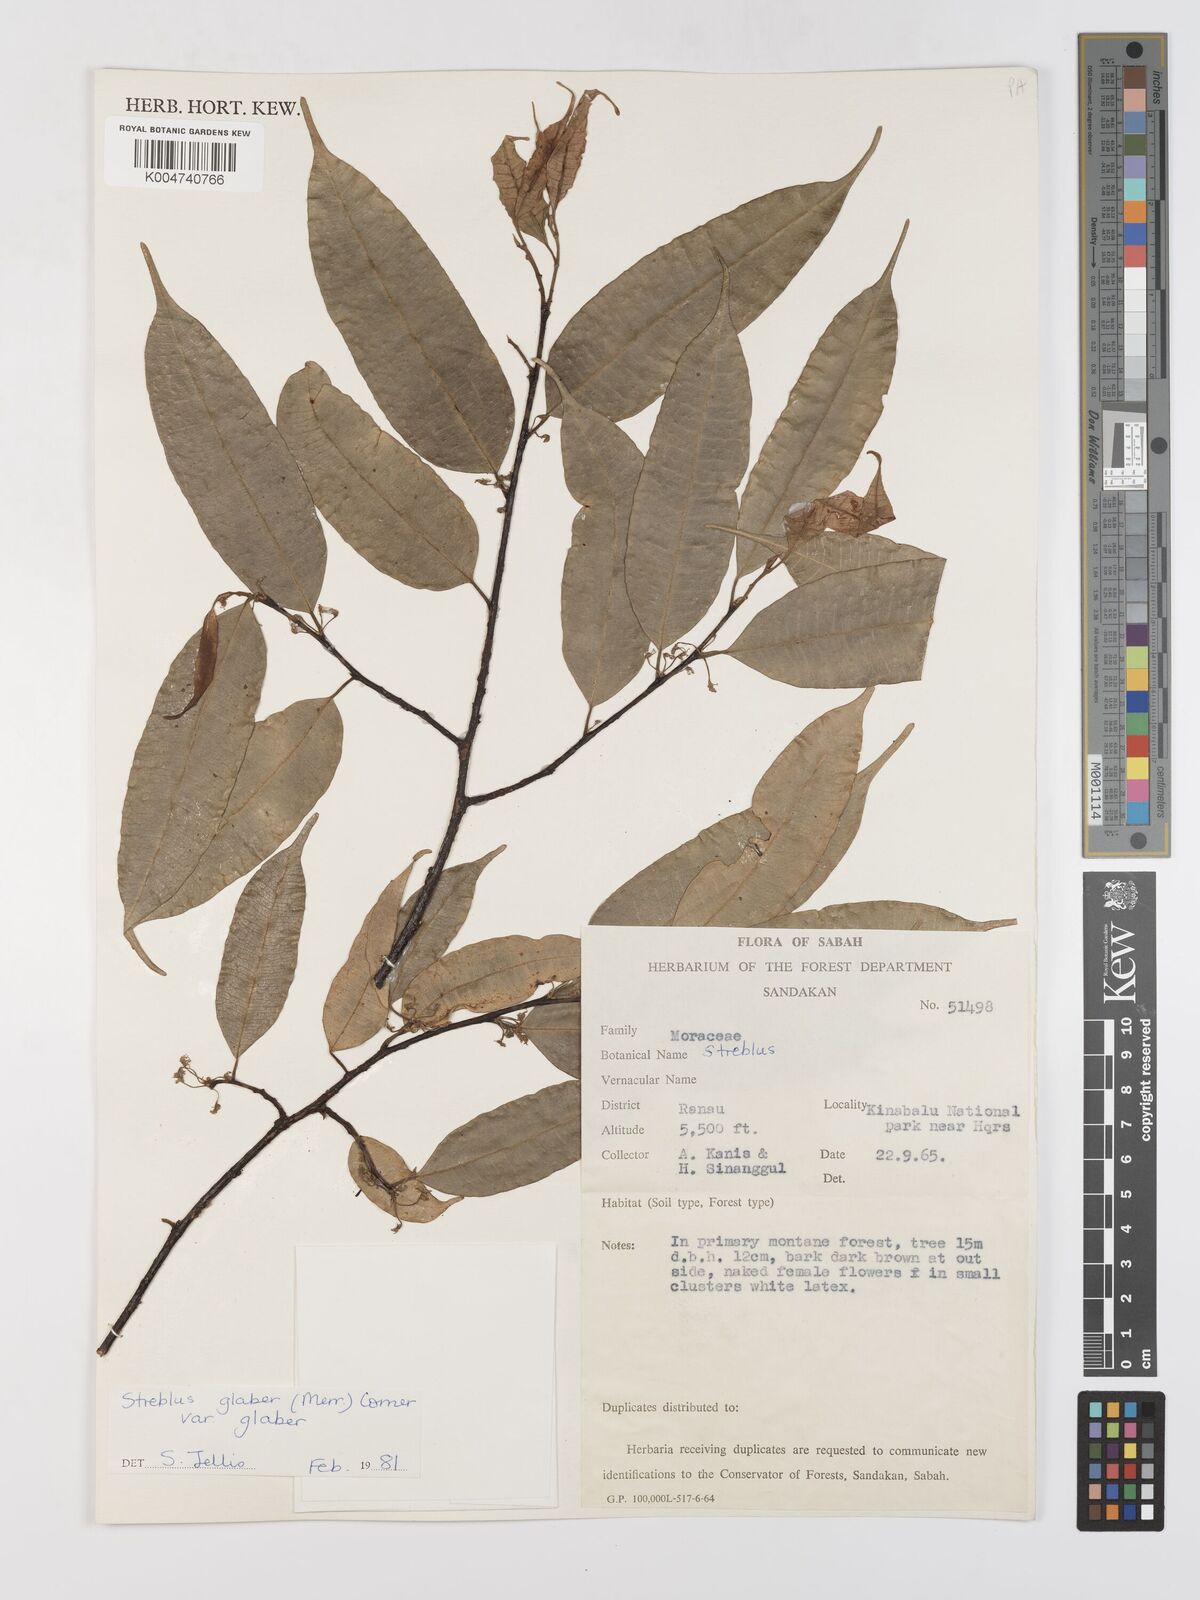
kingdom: Plantae
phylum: Tracheophyta
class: Magnoliopsida
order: Rosales
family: Moraceae
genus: Paratrophis
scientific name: Paratrophis glabra
